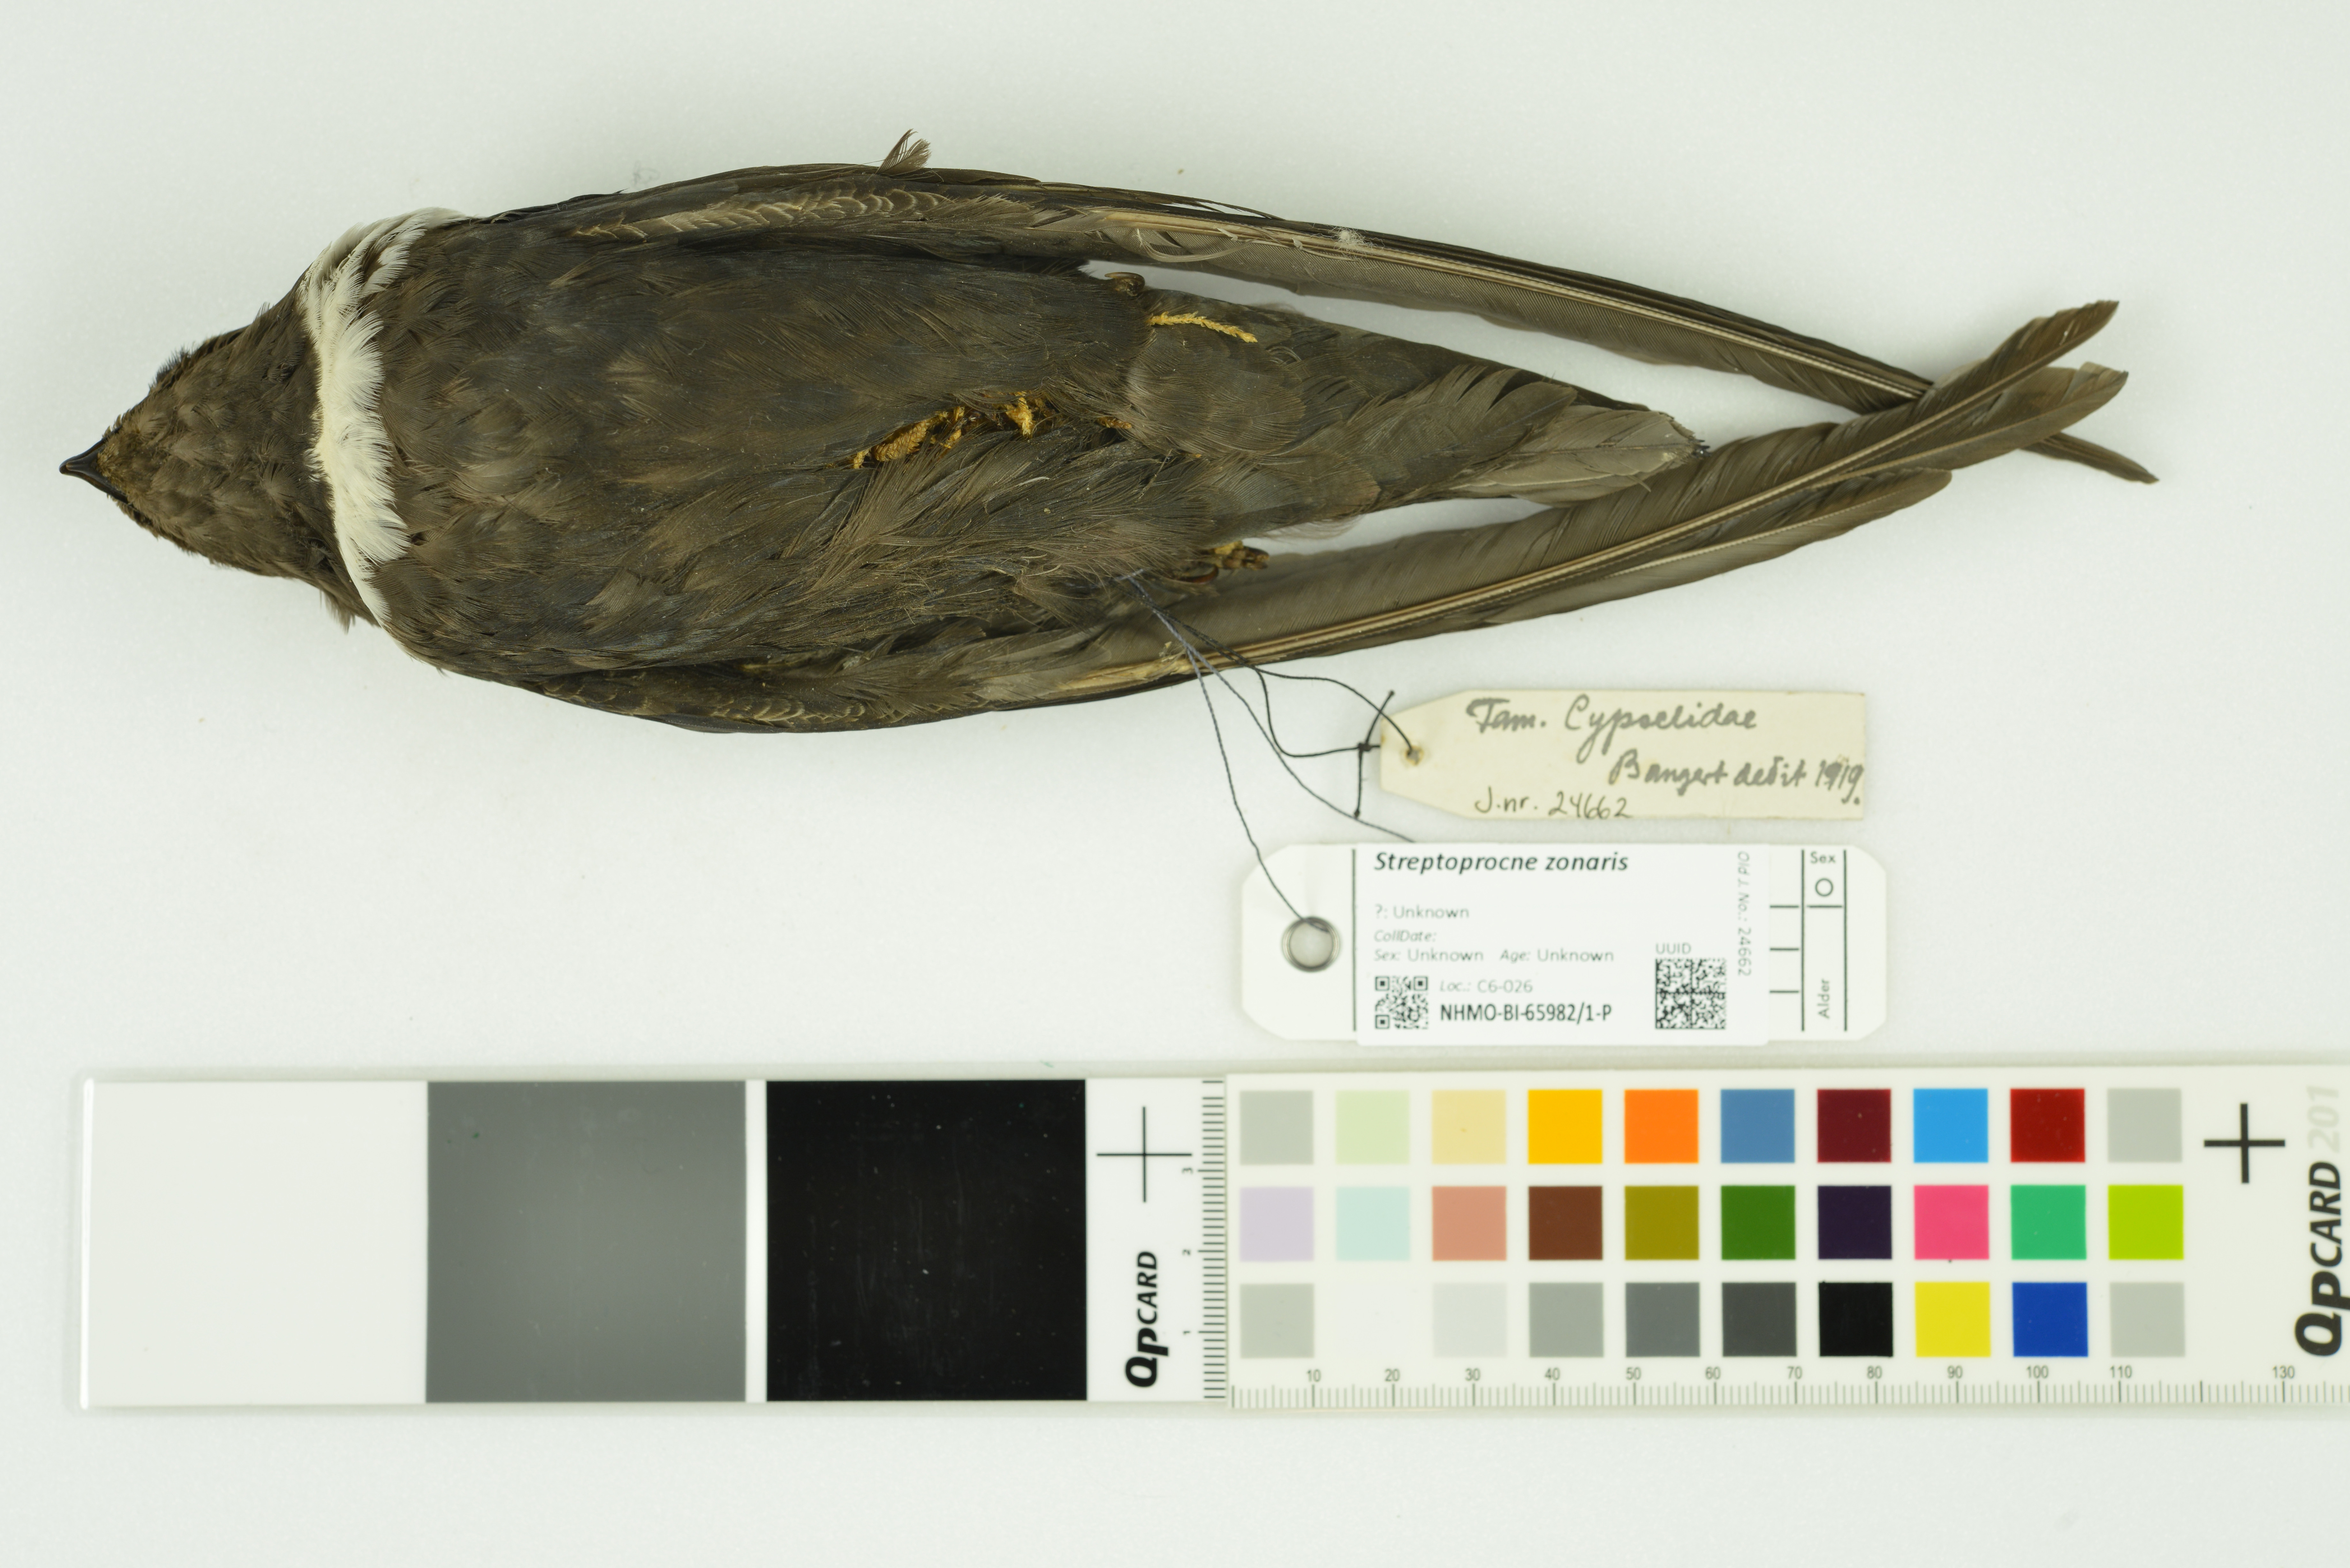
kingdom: Animalia
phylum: Chordata
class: Aves
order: Apodiformes
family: Apodidae
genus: Streptoprocne
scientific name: Streptoprocne zonaris
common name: White-collared swift
